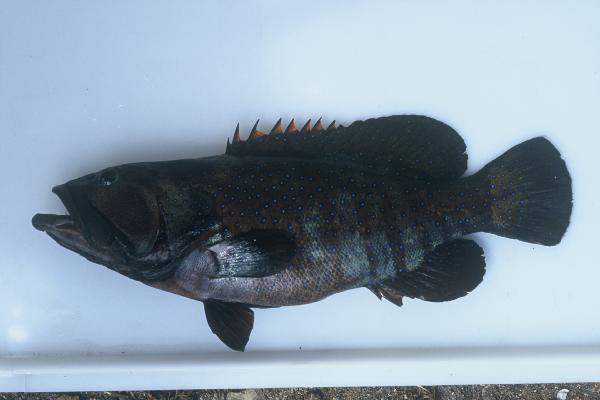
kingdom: Animalia
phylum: Chordata
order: Perciformes
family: Serranidae
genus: Cephalopholis
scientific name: Cephalopholis argus
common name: Peacock grouper
